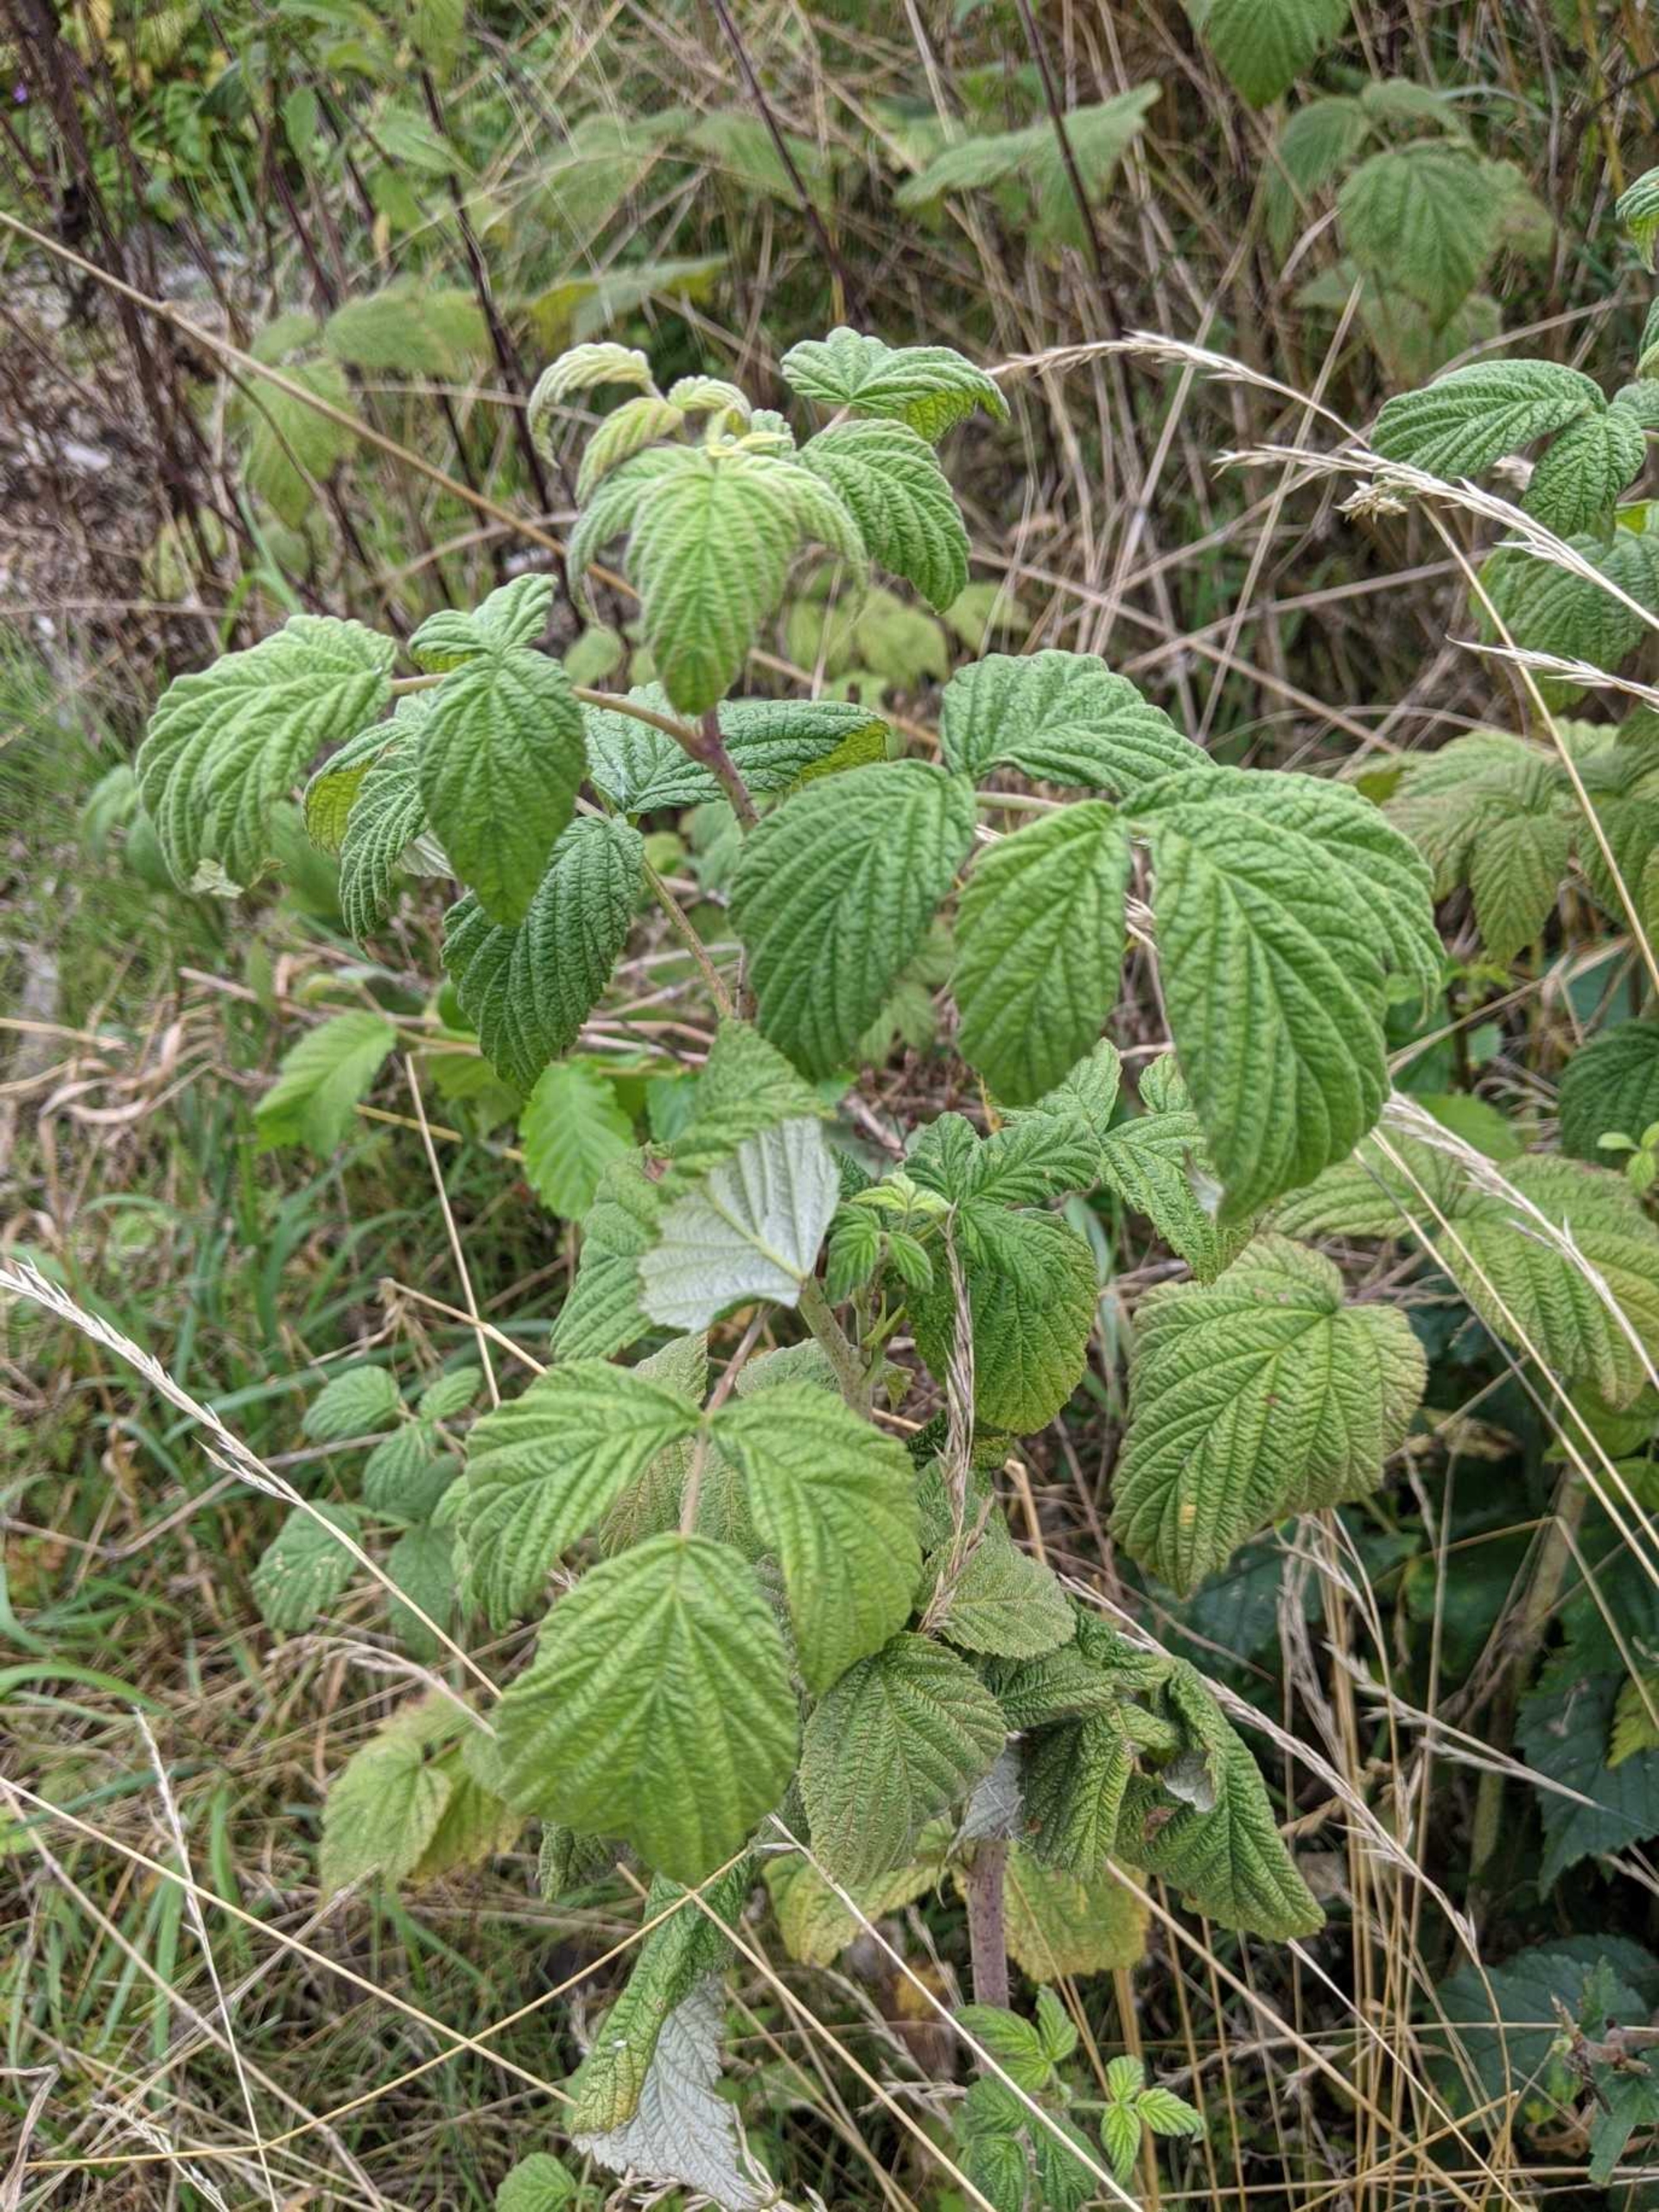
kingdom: Plantae
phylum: Tracheophyta
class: Magnoliopsida
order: Rosales
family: Rosaceae
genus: Rubus
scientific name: Rubus idaeus
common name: Hindbær
